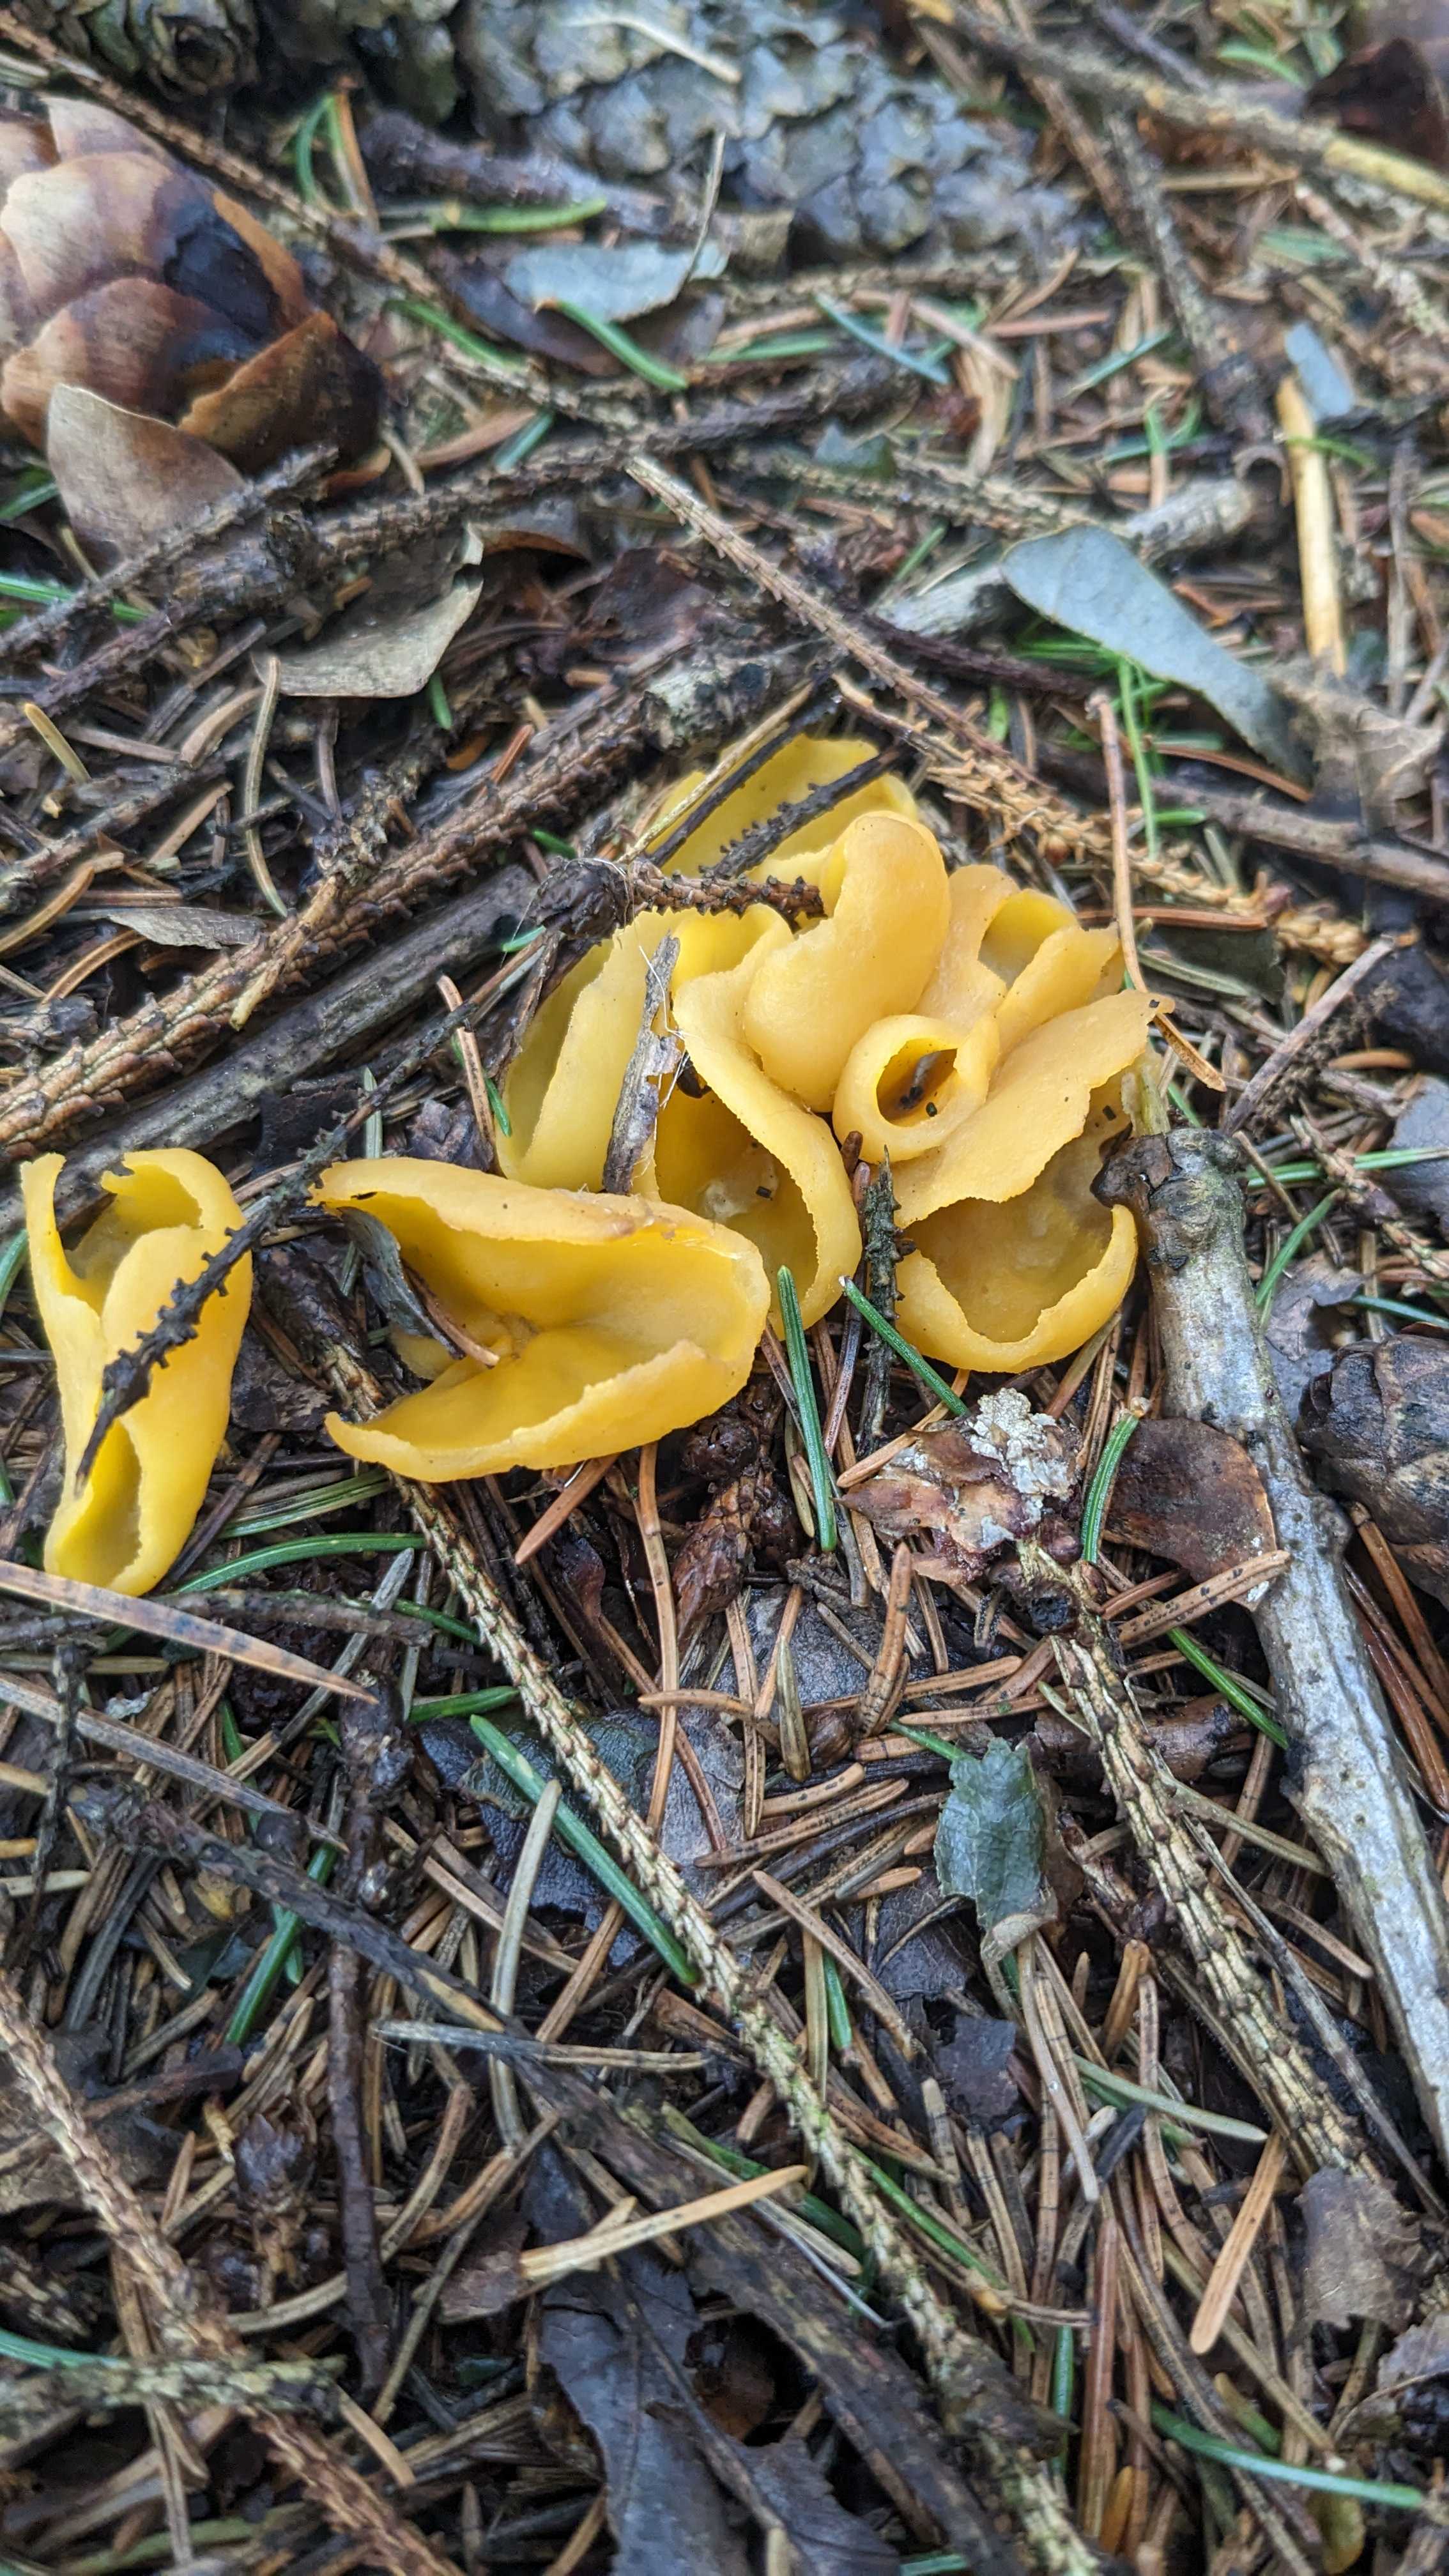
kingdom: Fungi
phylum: Ascomycota
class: Pezizomycetes
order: Pezizales
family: Pyronemataceae
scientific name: Pyronemataceae
